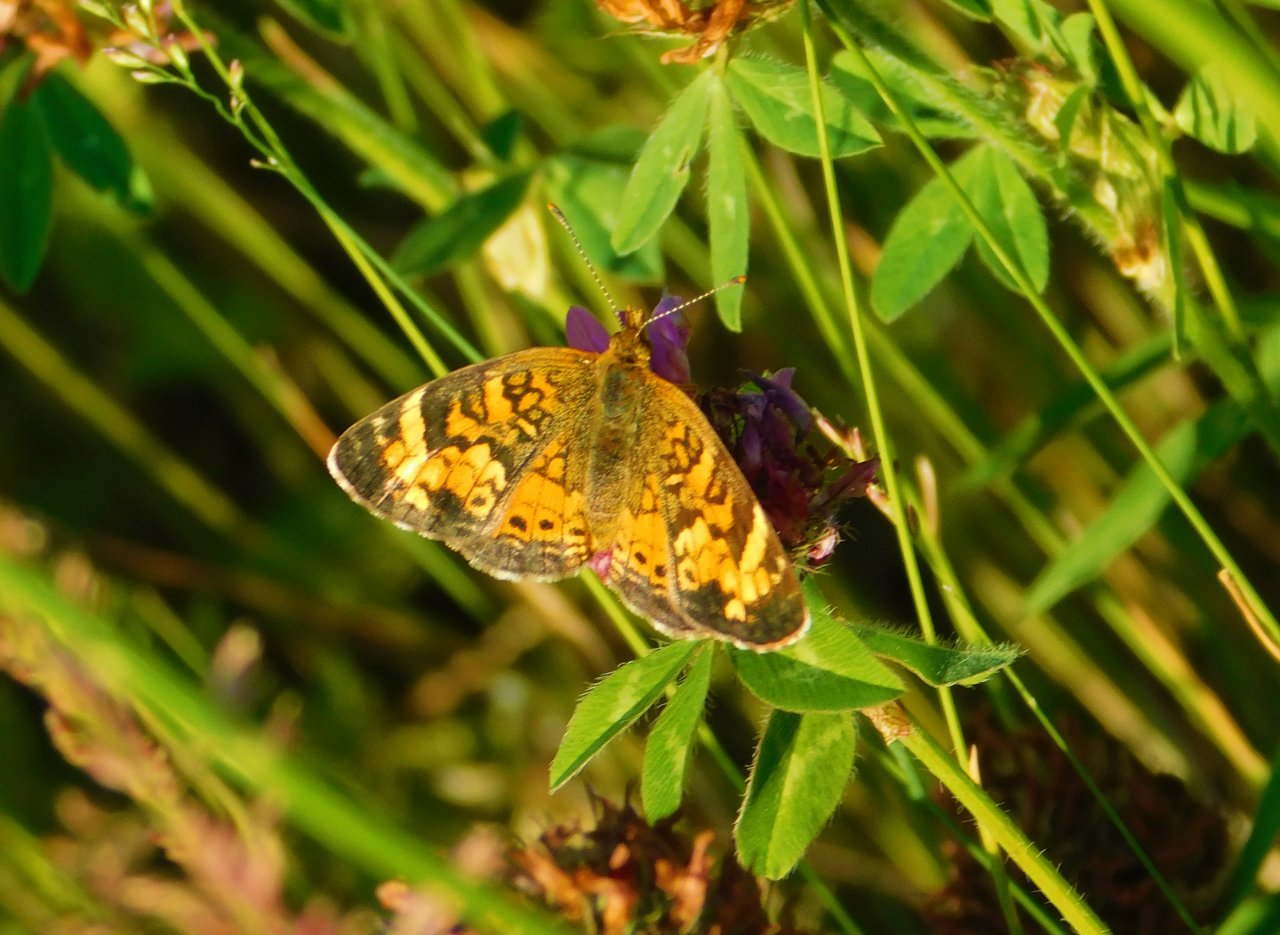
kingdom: Animalia
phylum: Arthropoda
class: Insecta
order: Lepidoptera
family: Nymphalidae
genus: Phyciodes
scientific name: Phyciodes tharos
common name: Northern Crescent
